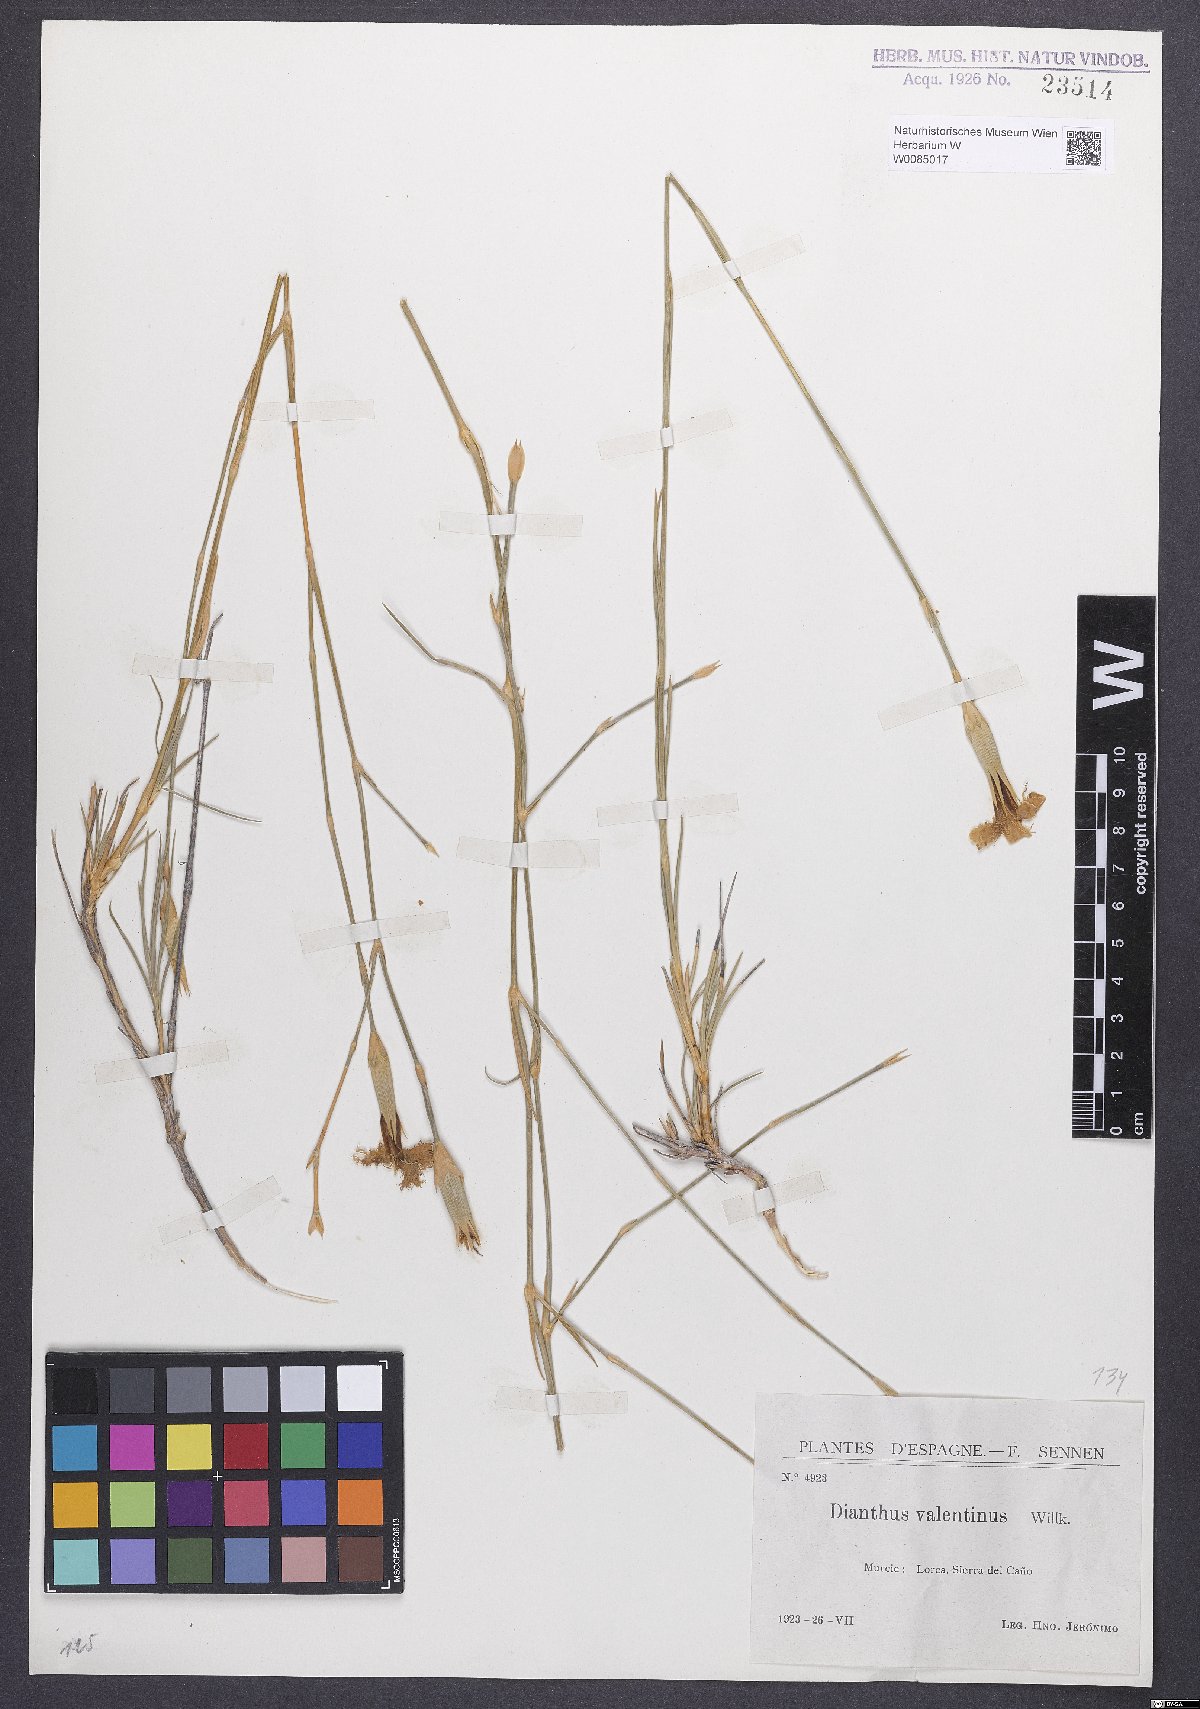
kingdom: Plantae
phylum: Tracheophyta
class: Magnoliopsida
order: Caryophyllales
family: Caryophyllaceae
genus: Dianthus
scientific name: Dianthus broteri
